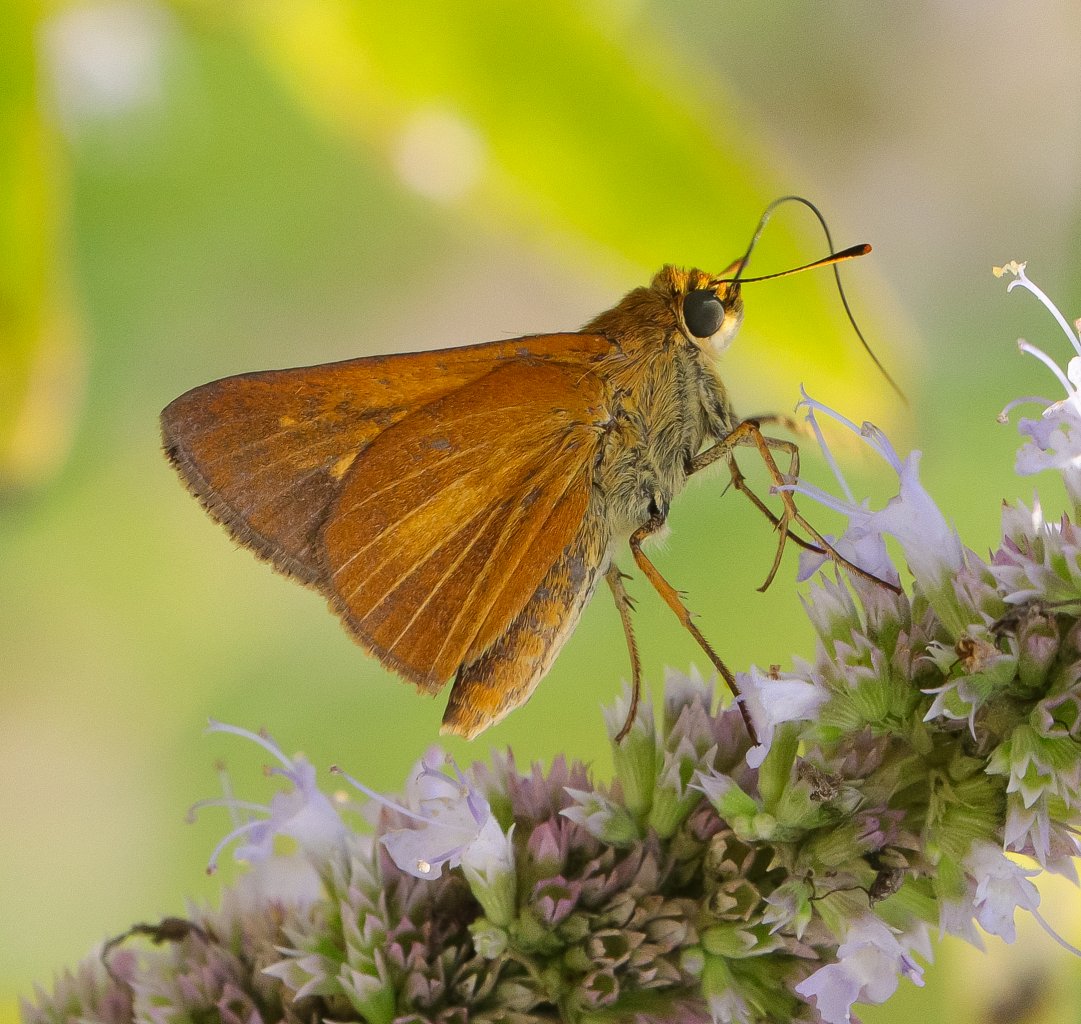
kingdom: Animalia
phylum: Arthropoda
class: Insecta
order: Lepidoptera
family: Hesperiidae
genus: Euphyes
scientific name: Euphyes dion
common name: Dion Skipper
